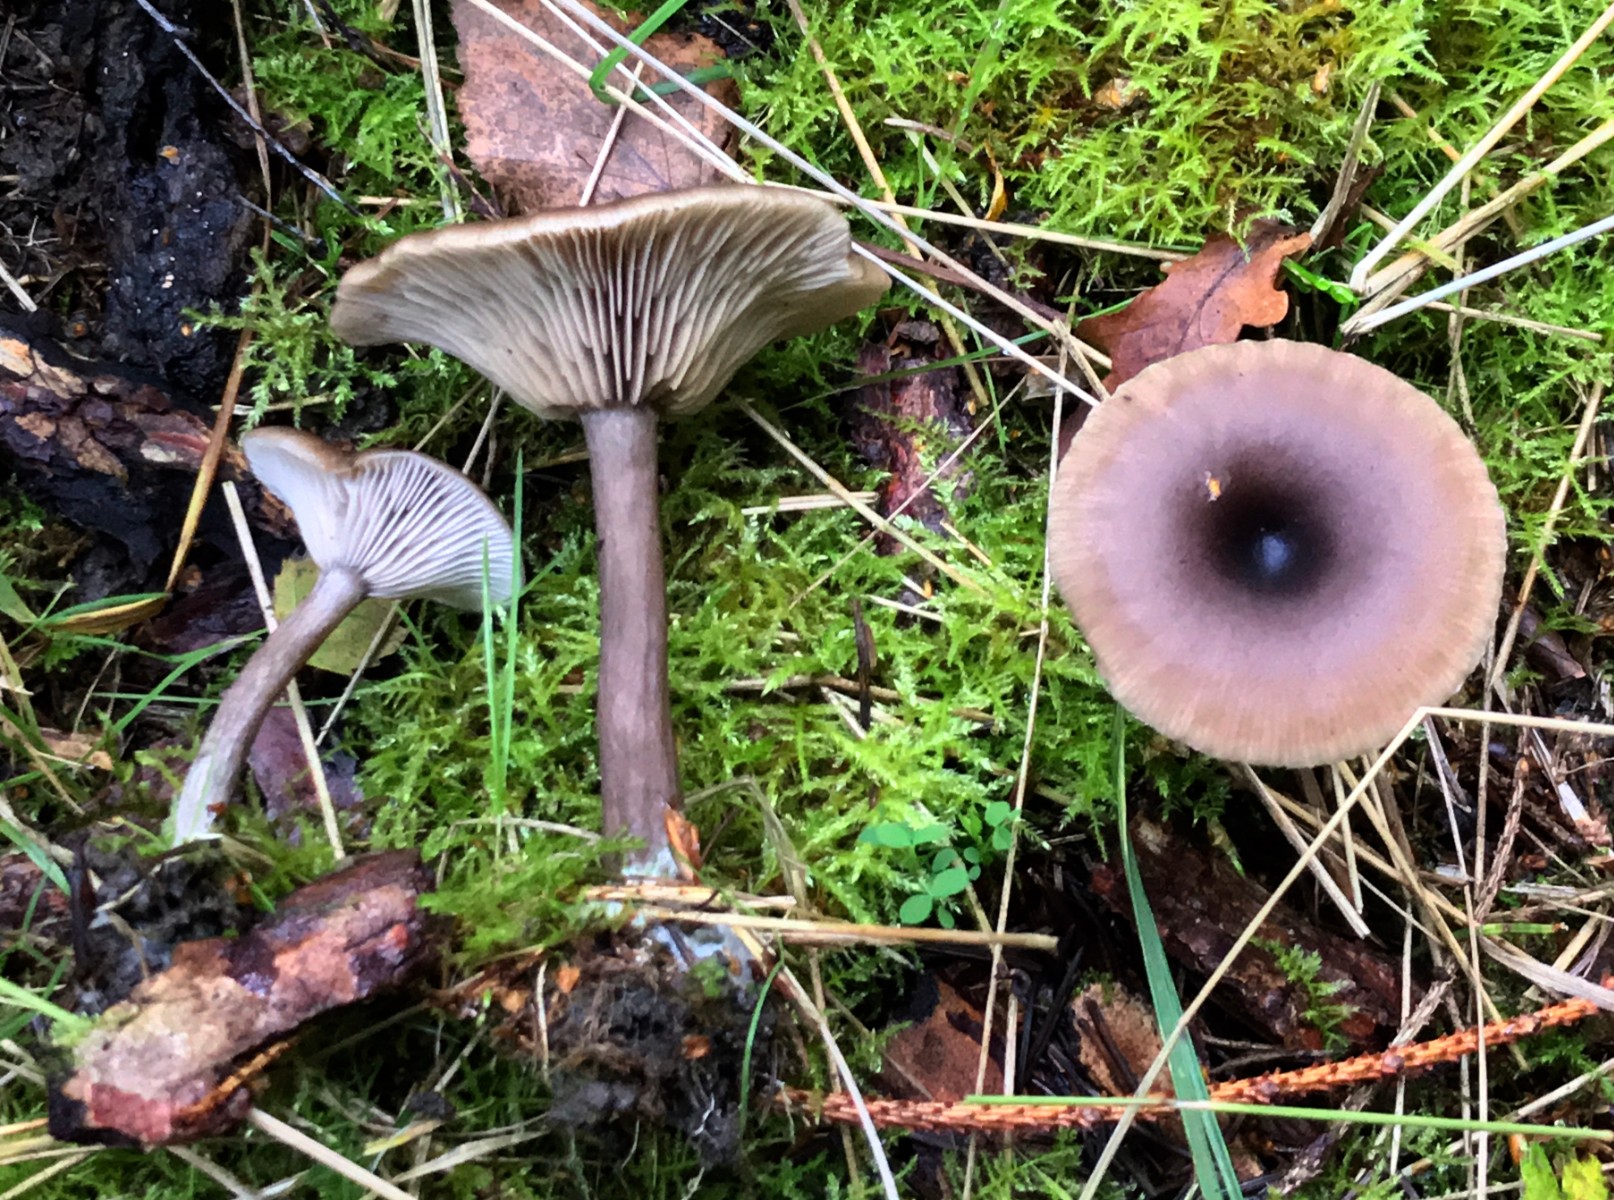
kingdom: Fungi
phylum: Basidiomycota
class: Agaricomycetes
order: Agaricales
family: Pseudoclitocybaceae
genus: Pseudoclitocybe
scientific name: Pseudoclitocybe cyathiformis
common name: almindelig bægertragthat
